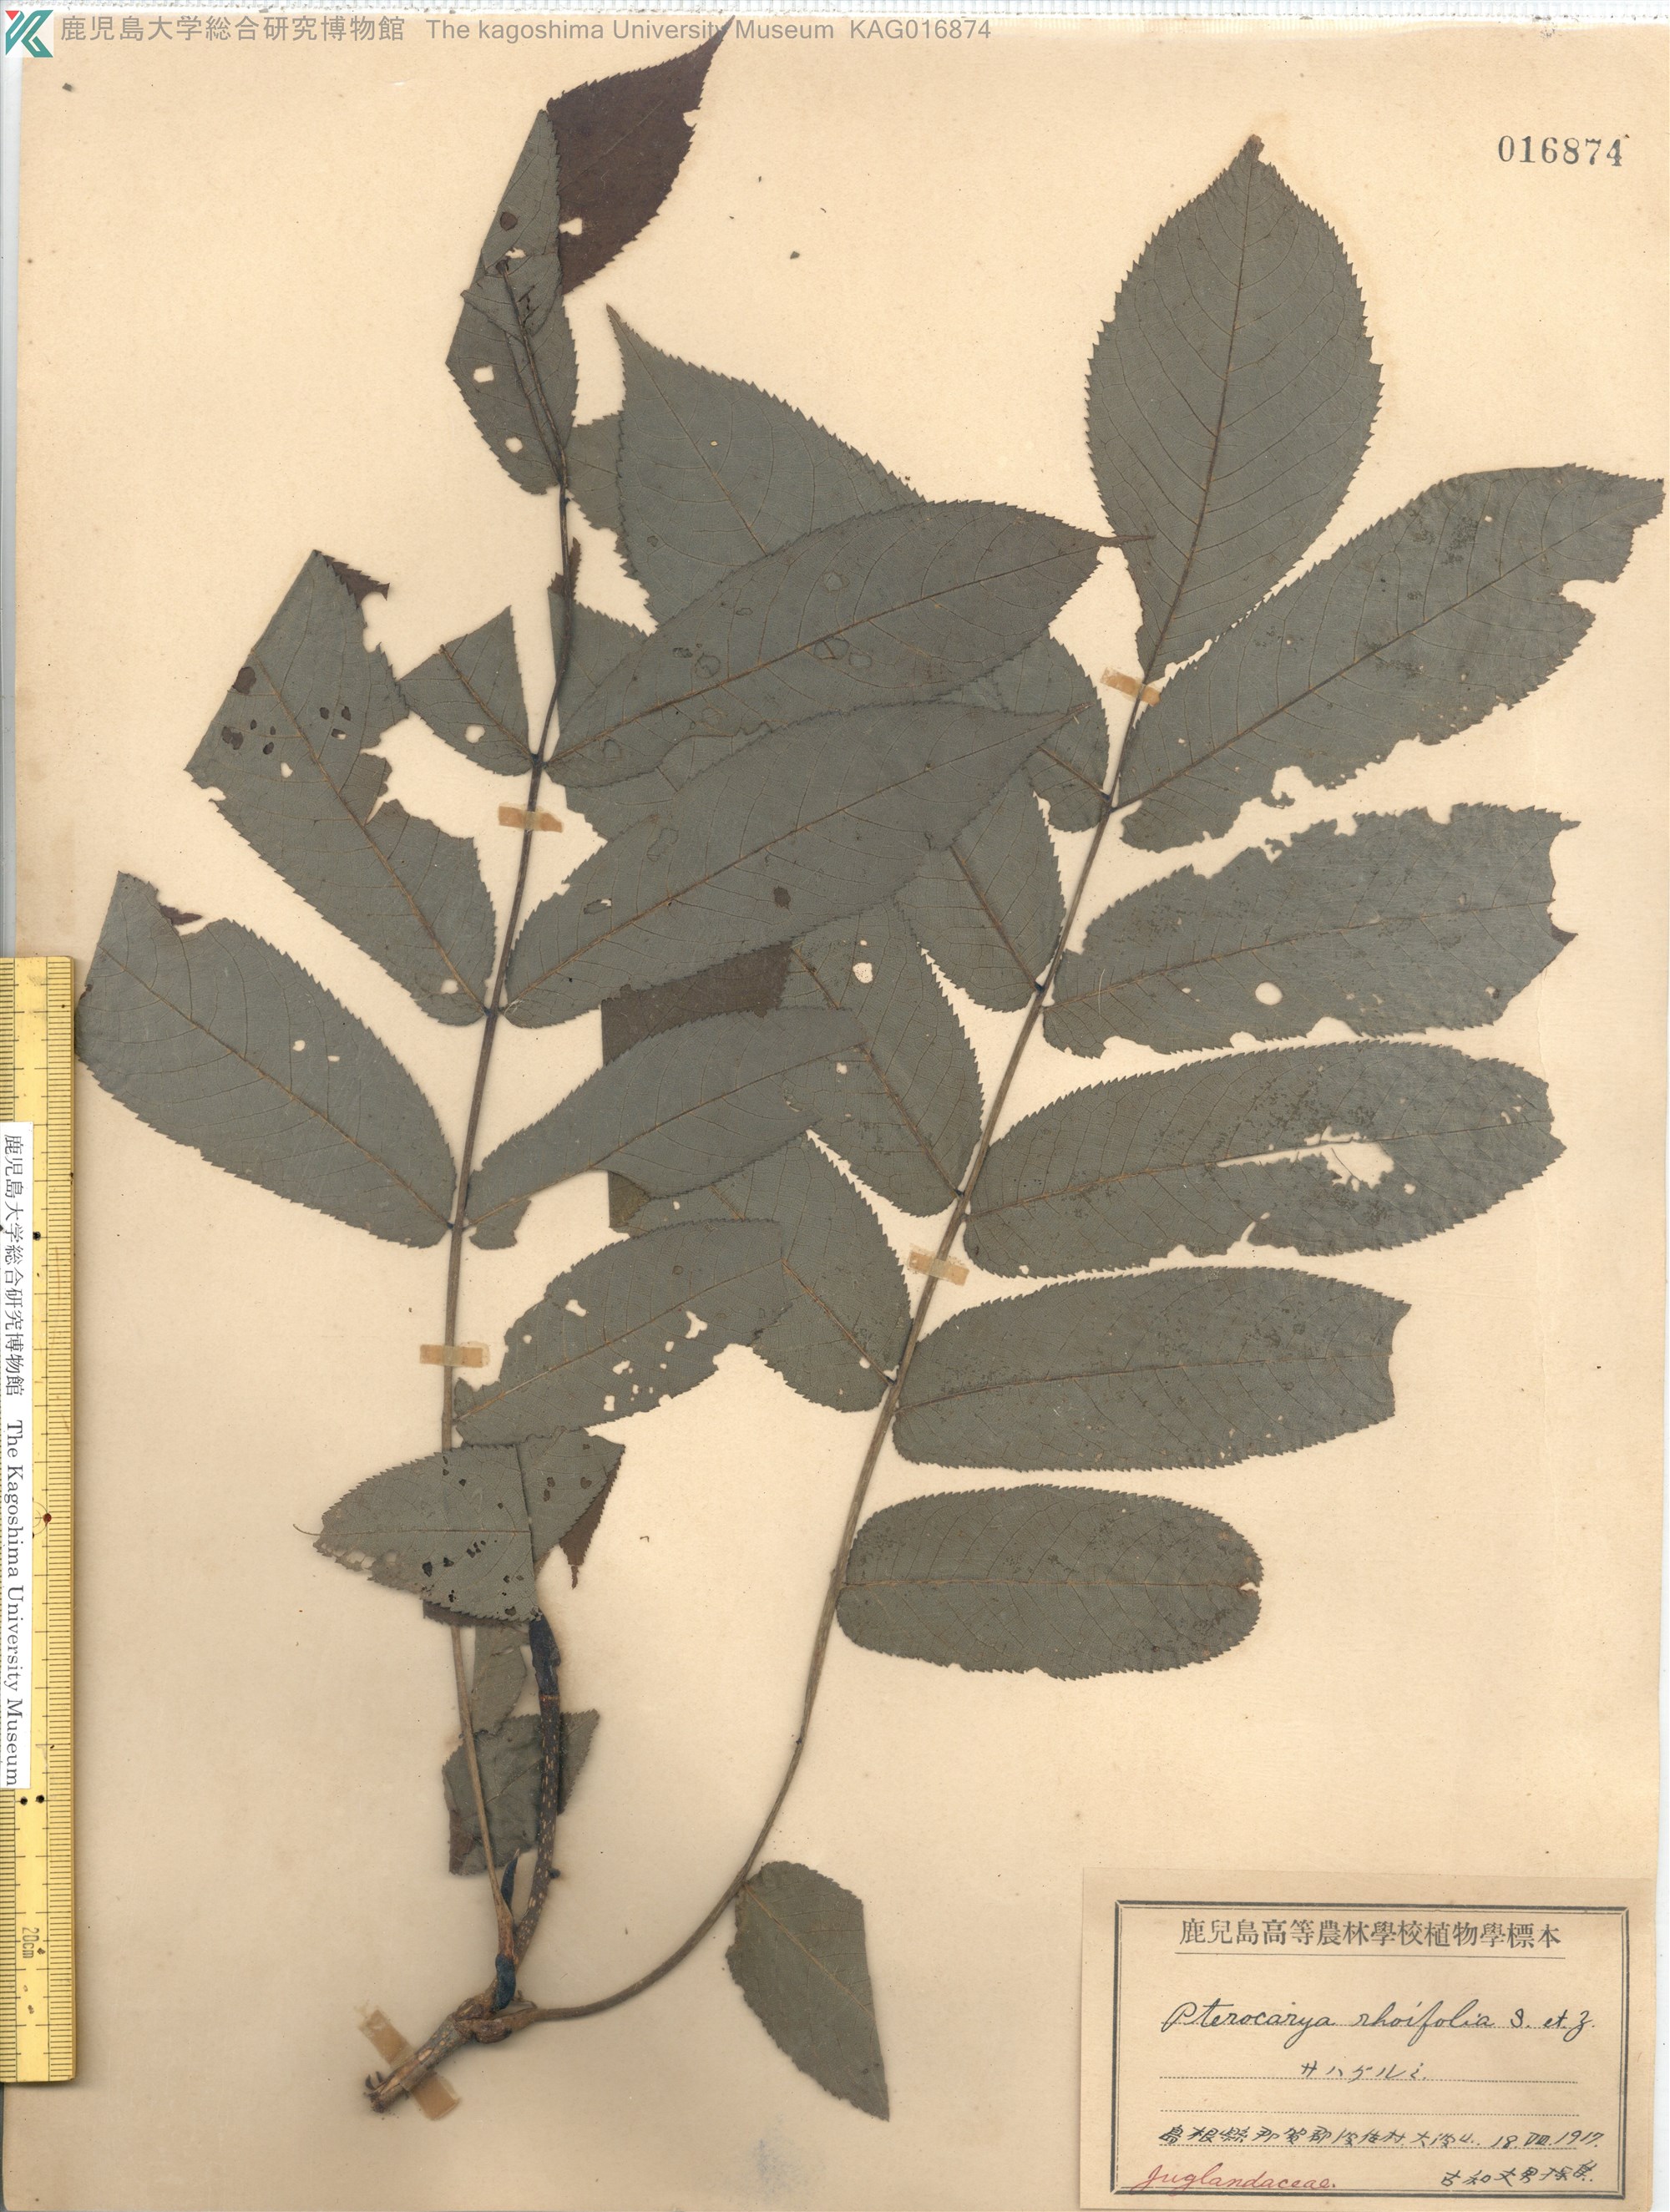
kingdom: Plantae
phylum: Tracheophyta
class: Magnoliopsida
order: Fagales
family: Juglandaceae
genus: Pterocarya
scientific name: Pterocarya rhoifolia
